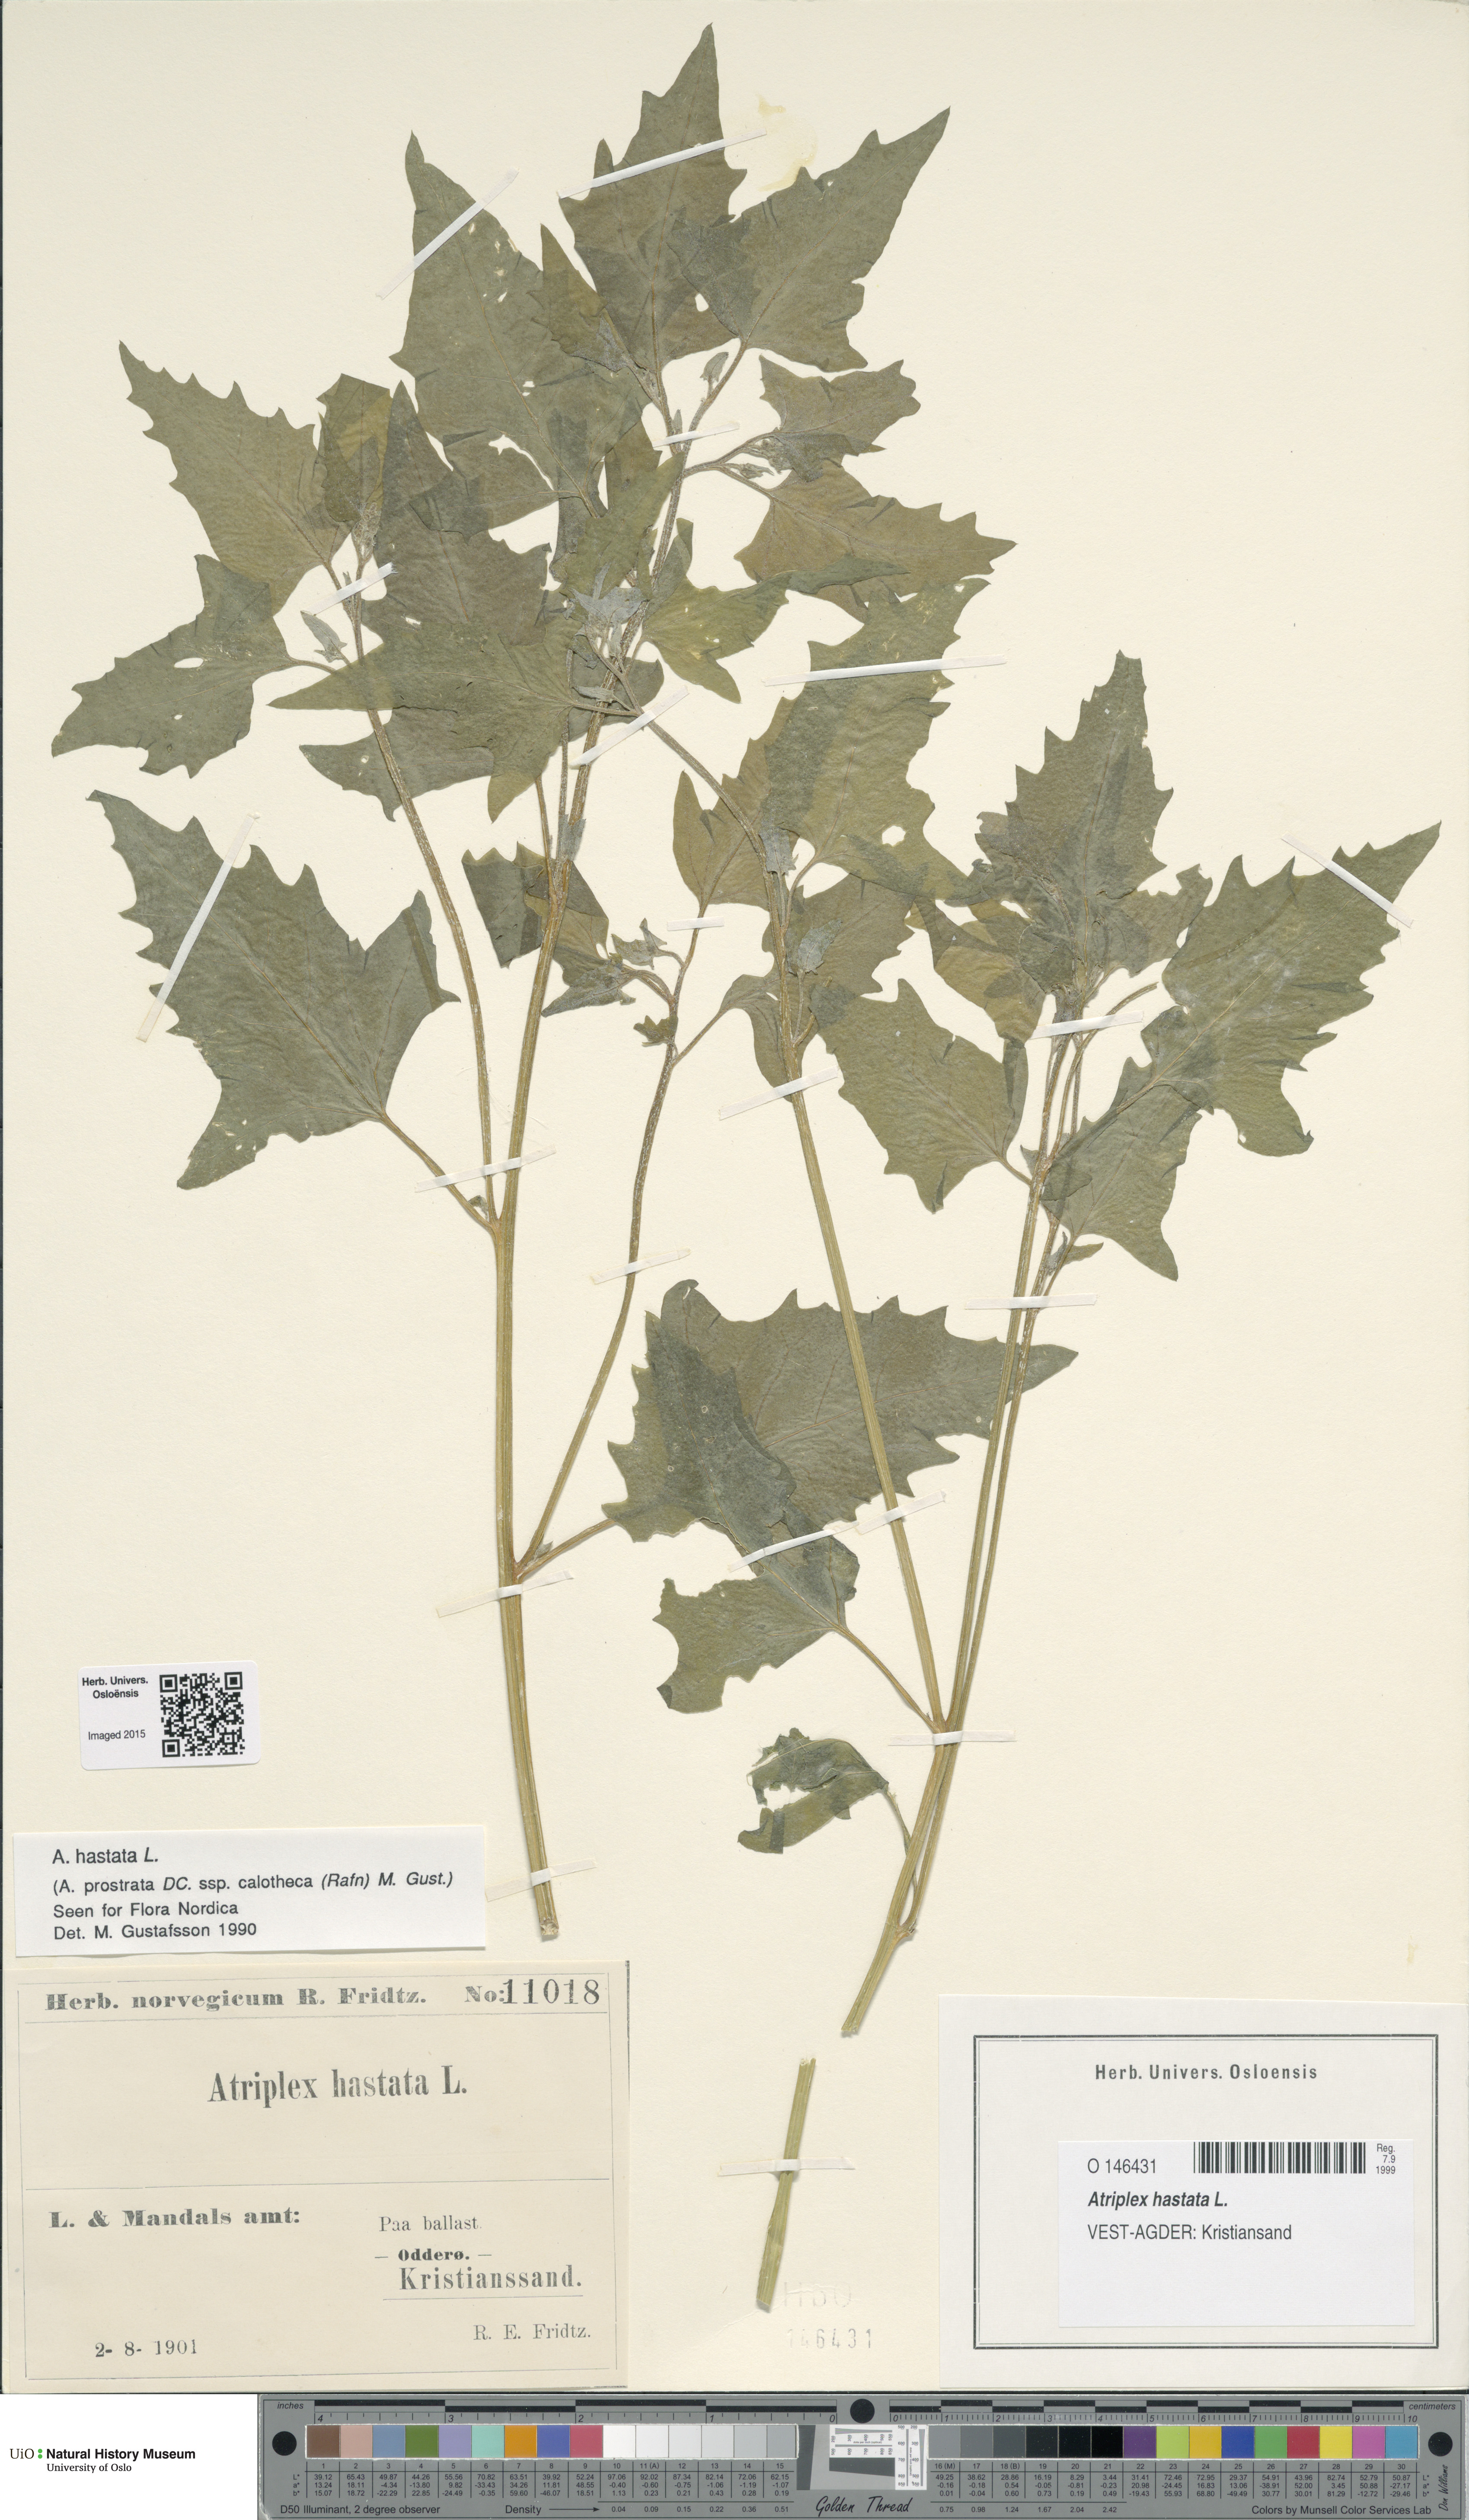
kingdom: Plantae
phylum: Tracheophyta
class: Magnoliopsida
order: Caryophyllales
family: Amaranthaceae
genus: Atriplex
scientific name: Atriplex calotheca
